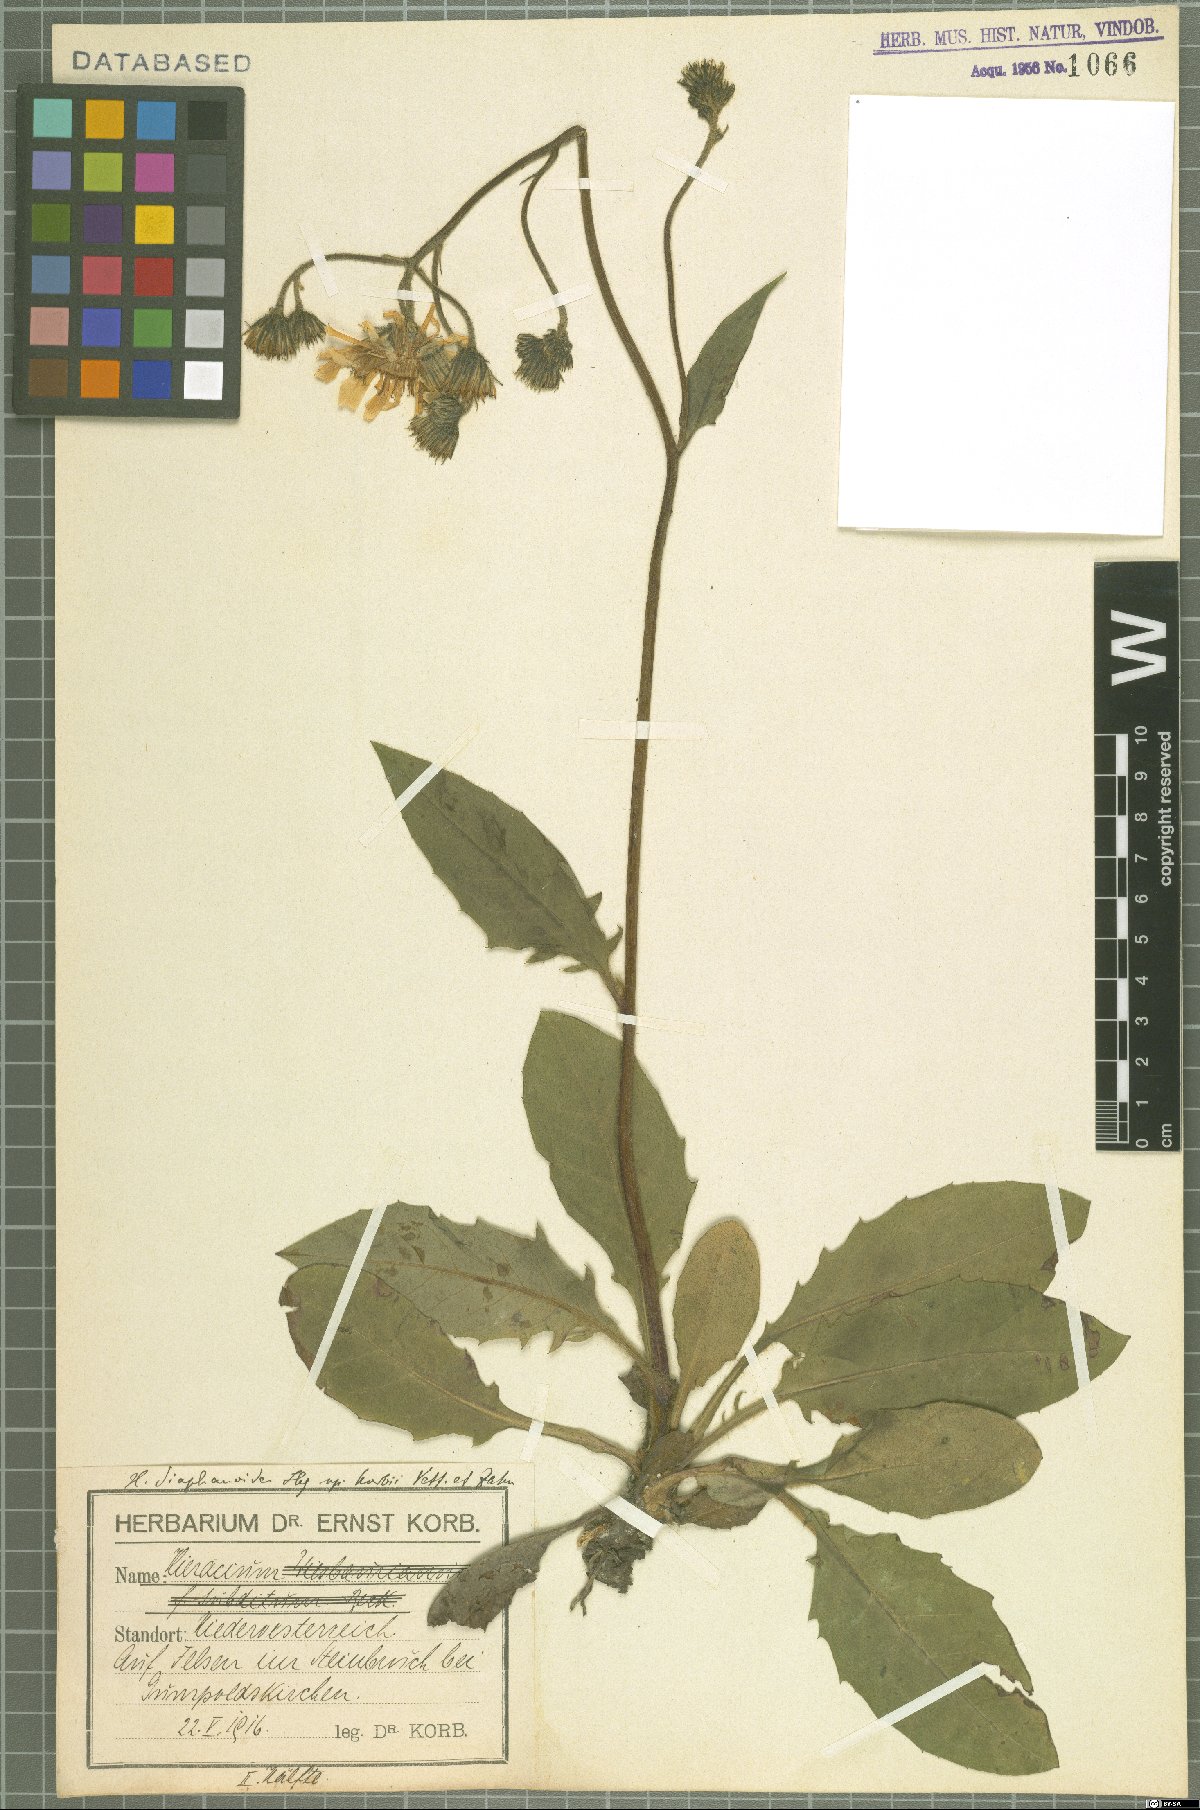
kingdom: Plantae
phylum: Tracheophyta
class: Magnoliopsida
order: Asterales
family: Asteraceae
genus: Hieracium
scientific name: Hieracium diaphanoides
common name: Fine-bracted hawkweed
